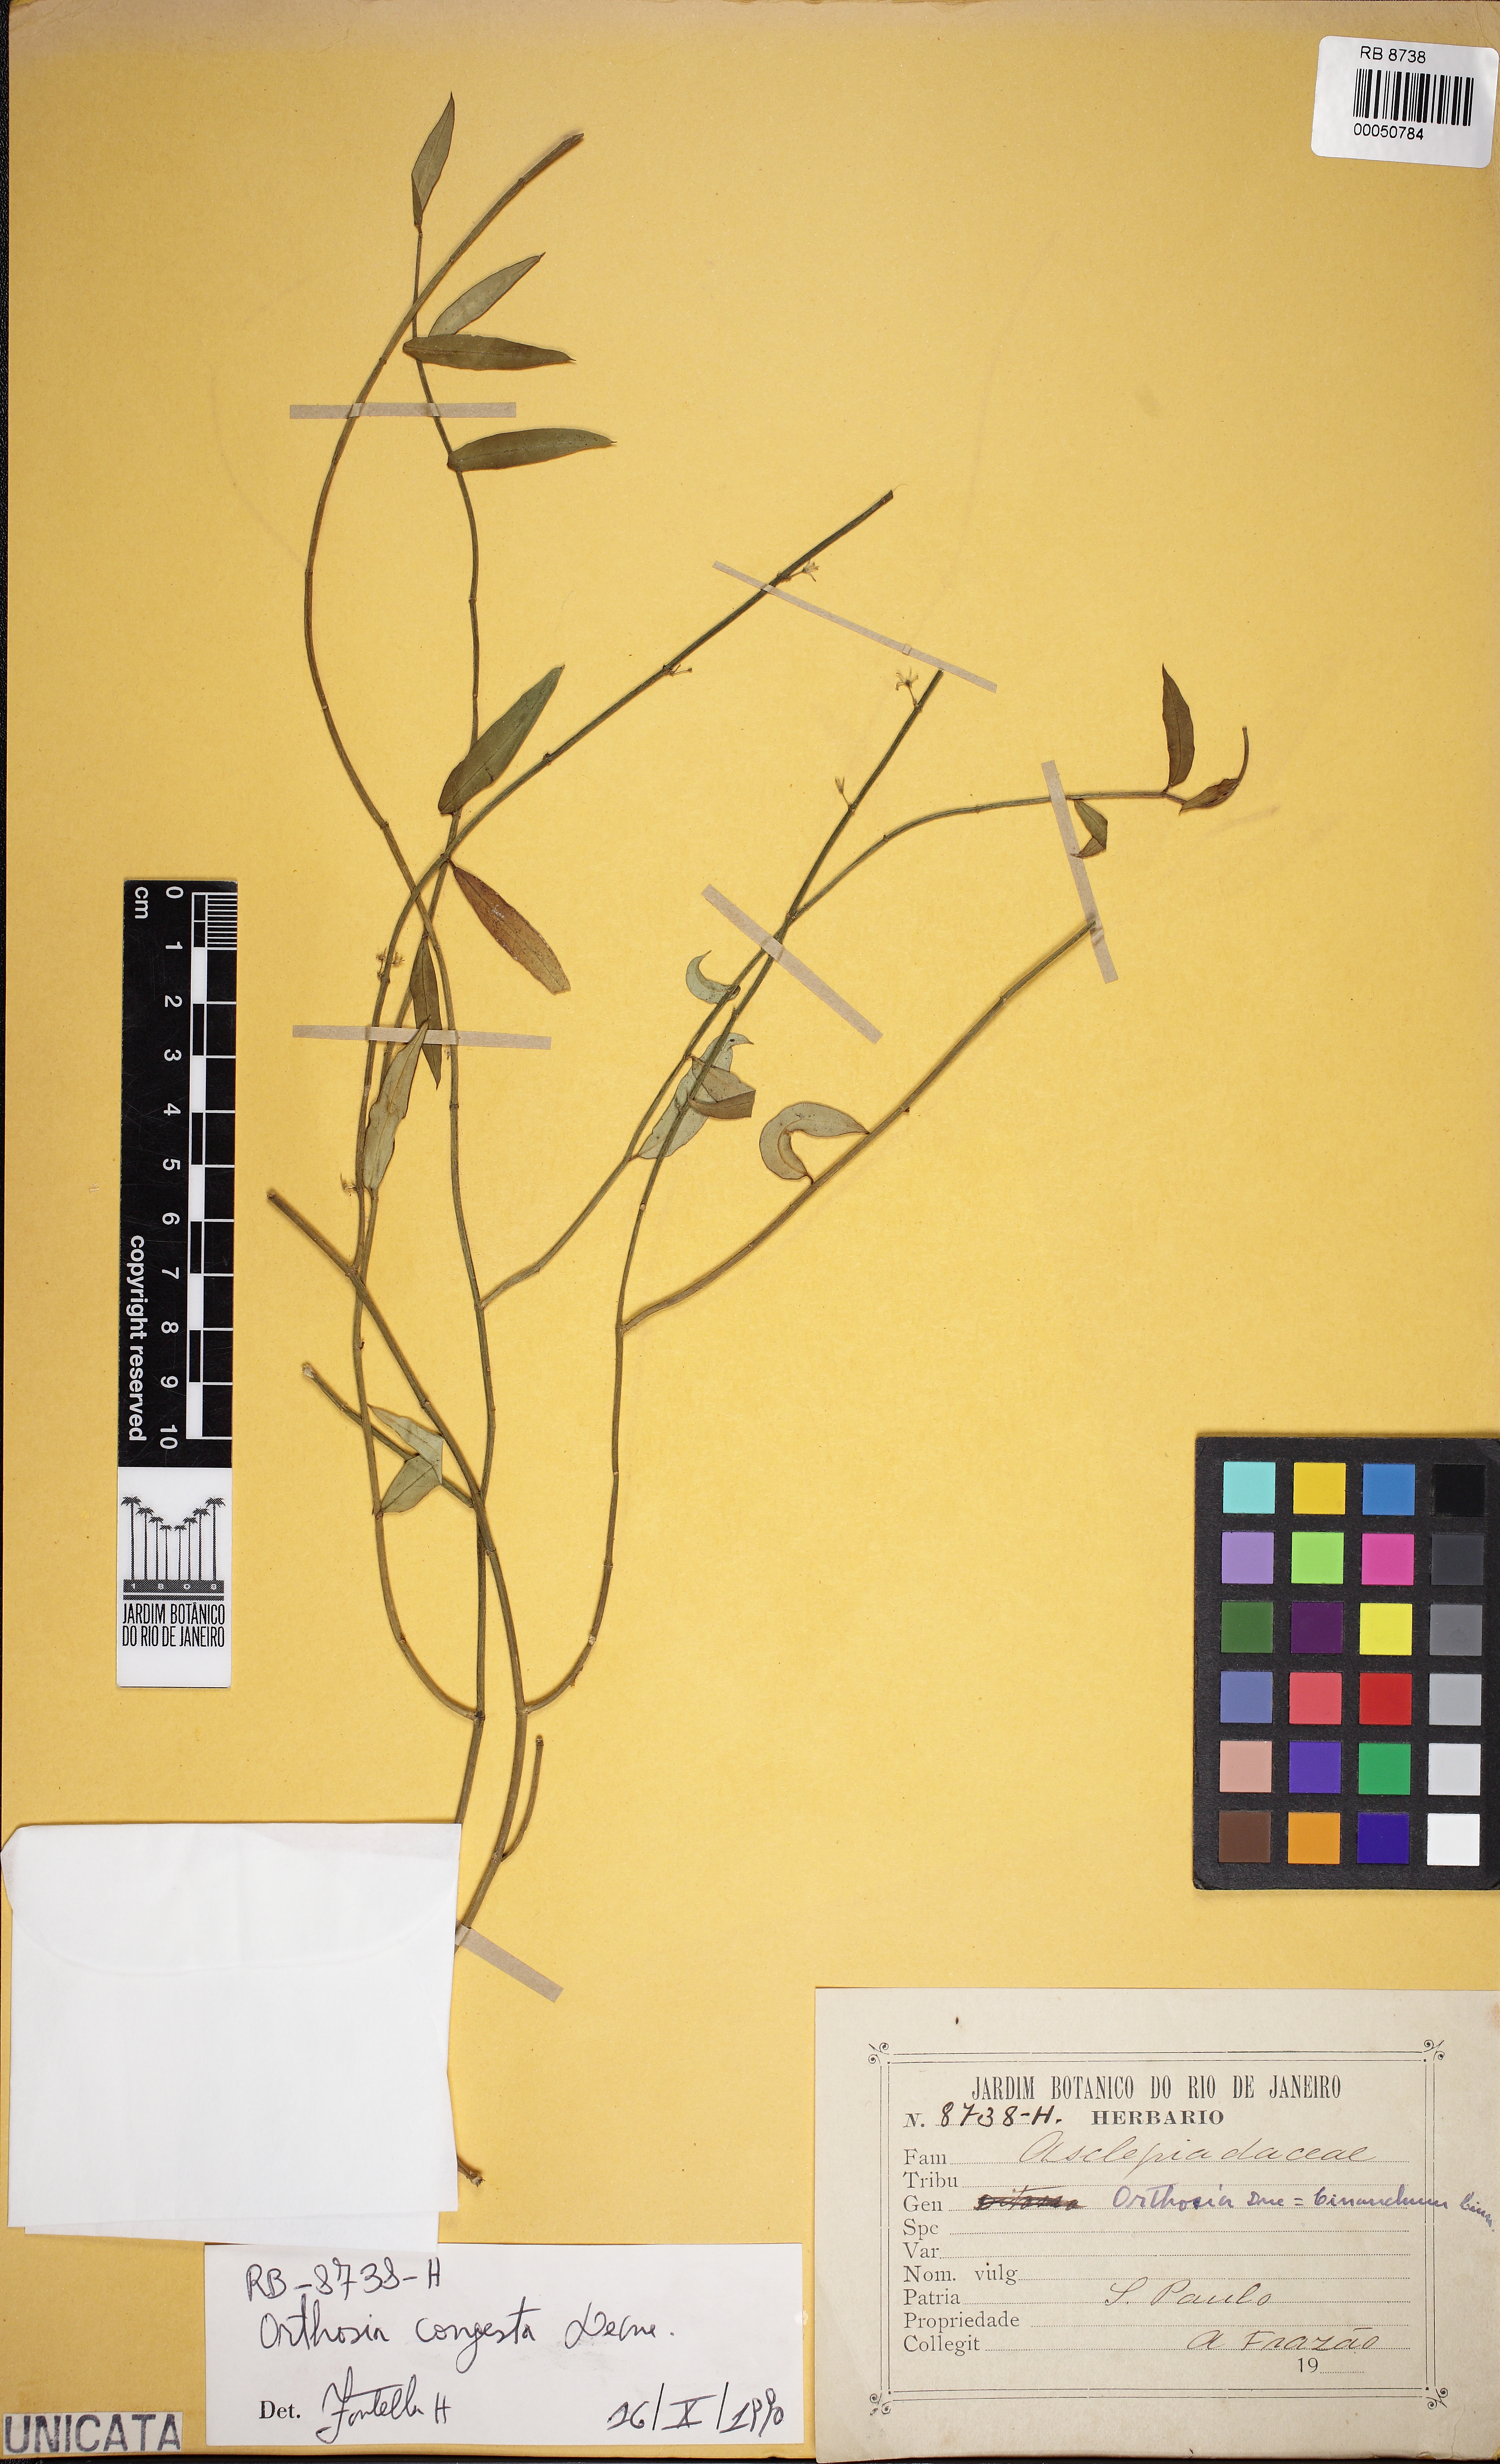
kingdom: Plantae
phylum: Tracheophyta
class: Magnoliopsida
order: Gentianales
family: Apocynaceae
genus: Orthosia
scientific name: Orthosia congesta
